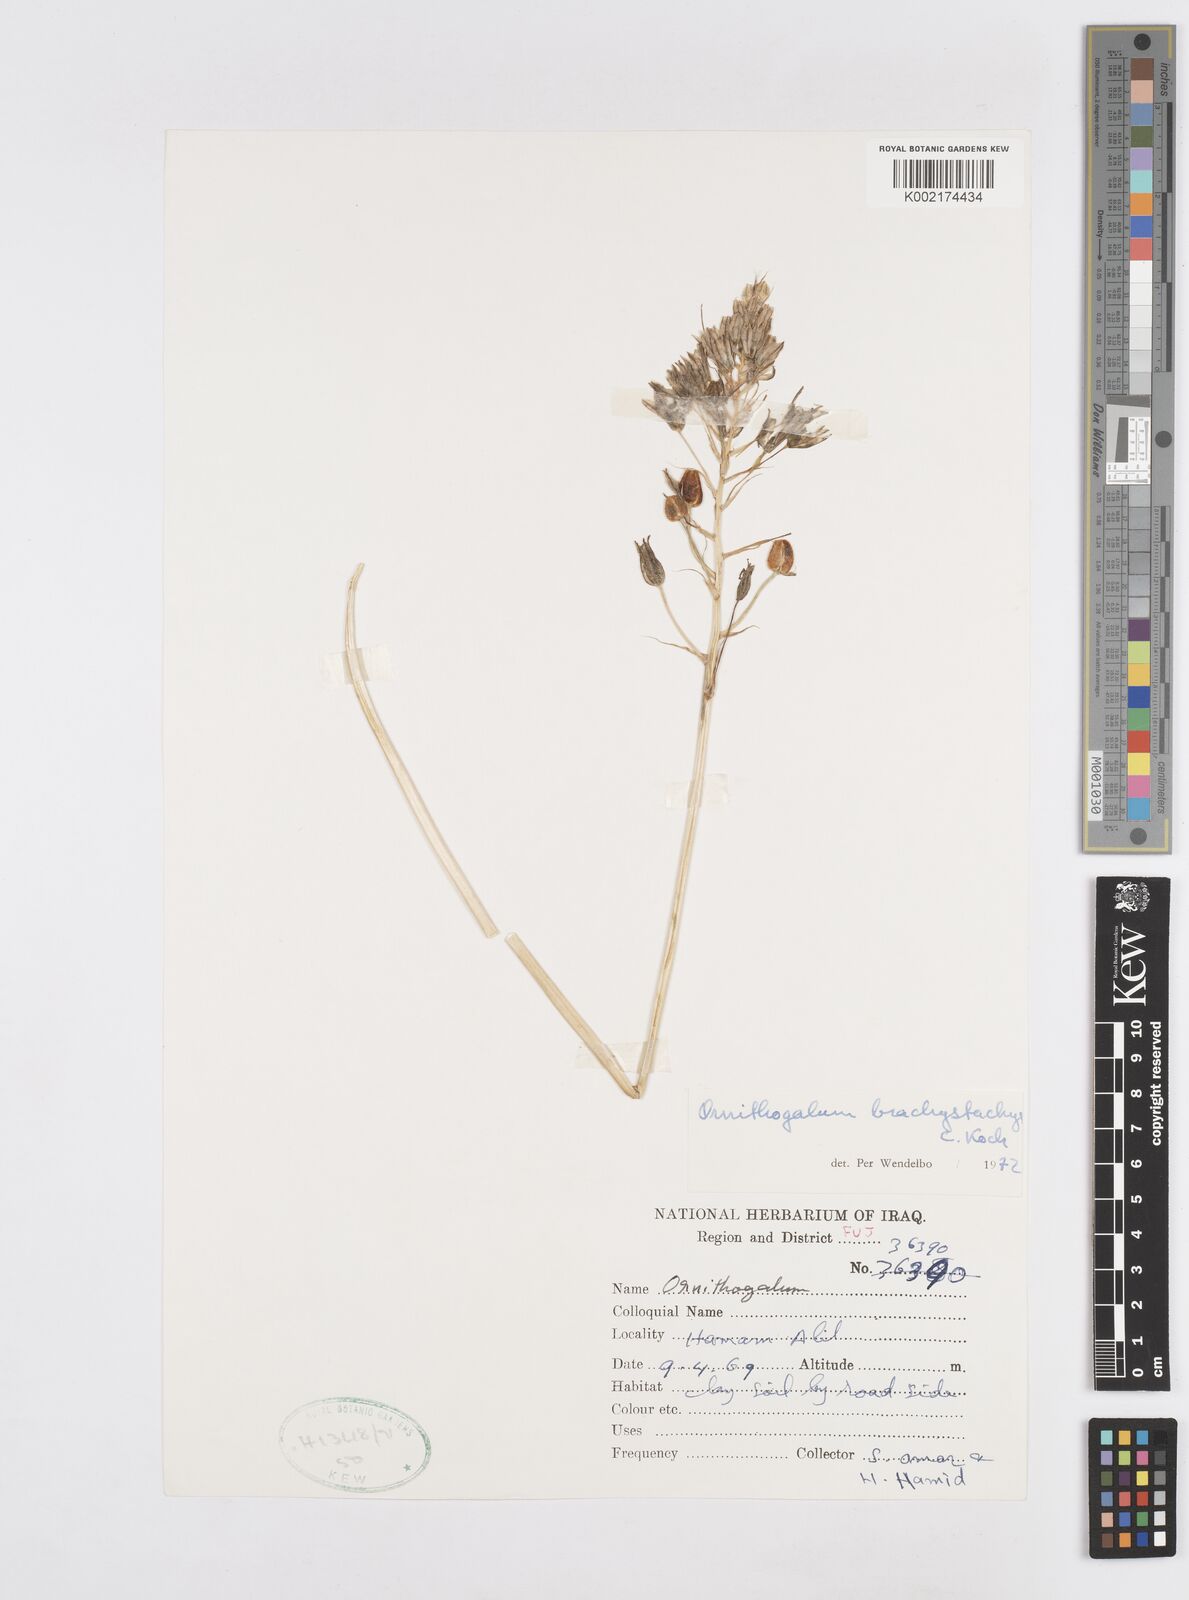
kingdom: Plantae
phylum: Tracheophyta
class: Liliopsida
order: Asparagales
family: Asparagaceae
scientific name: Asparagaceae
